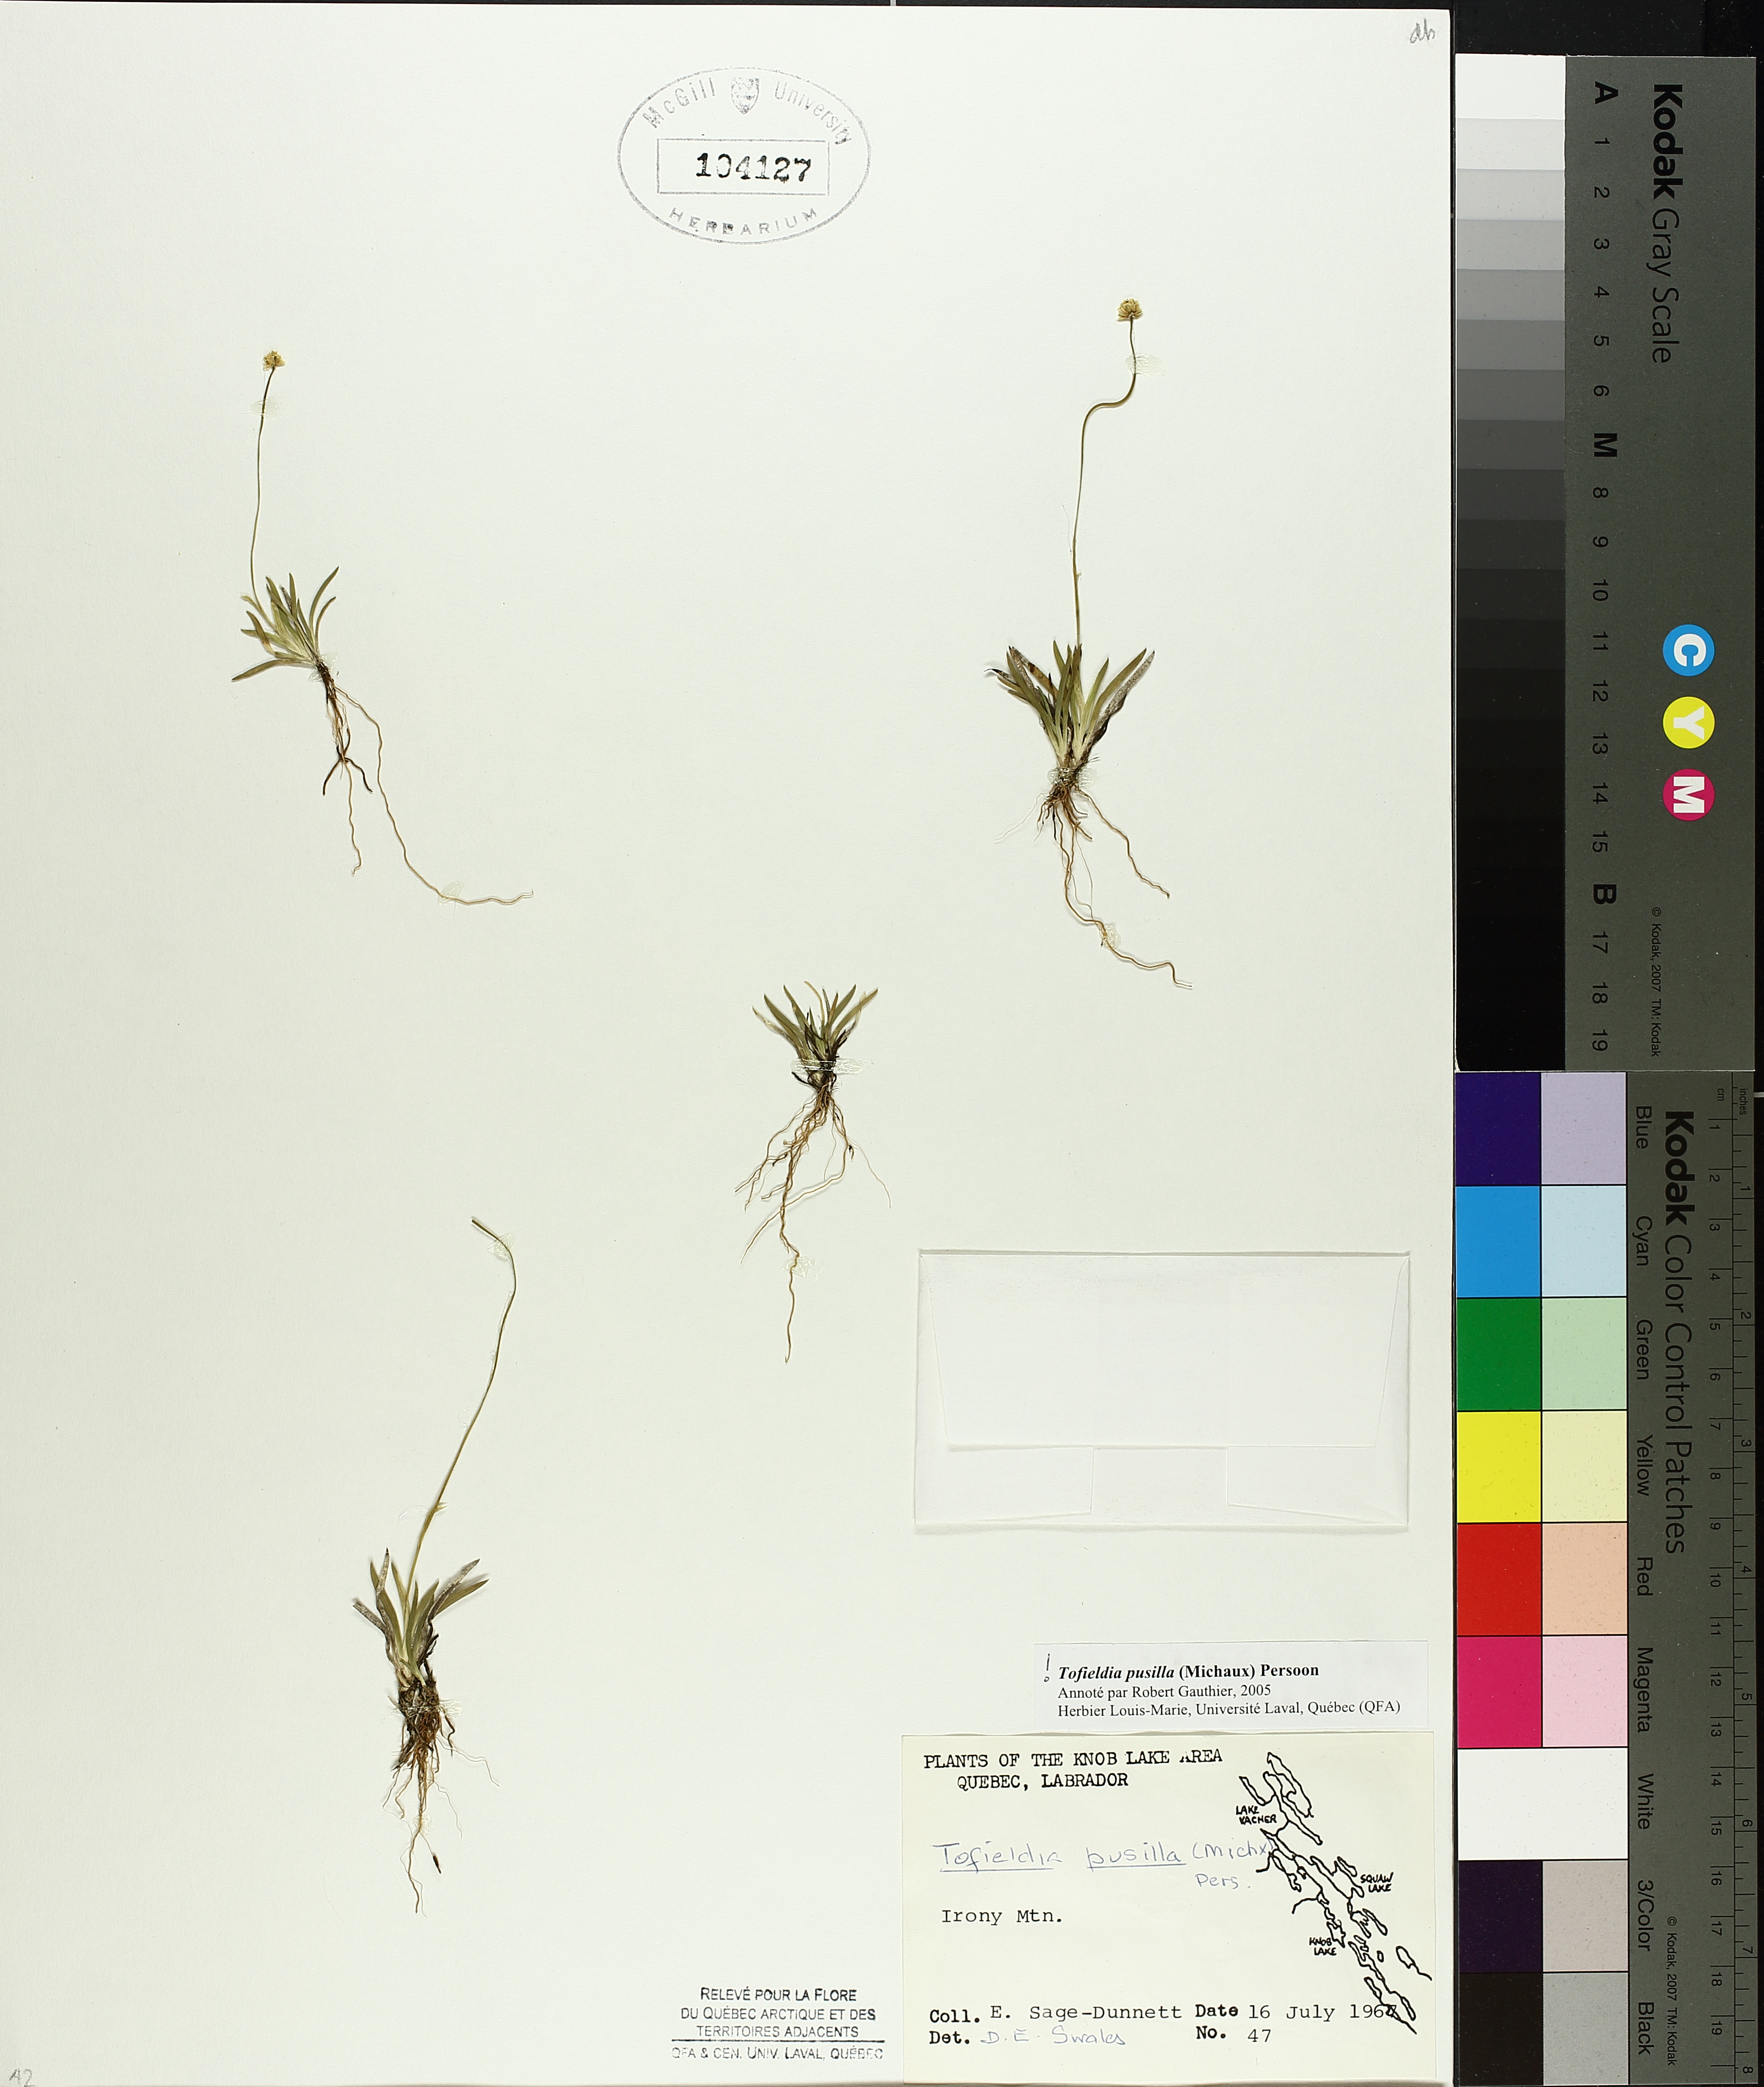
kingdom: Plantae
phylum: Tracheophyta
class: Liliopsida
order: Alismatales
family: Tofieldiaceae
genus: Tofieldia
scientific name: Tofieldia pusilla
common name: Scottish false asphodel
